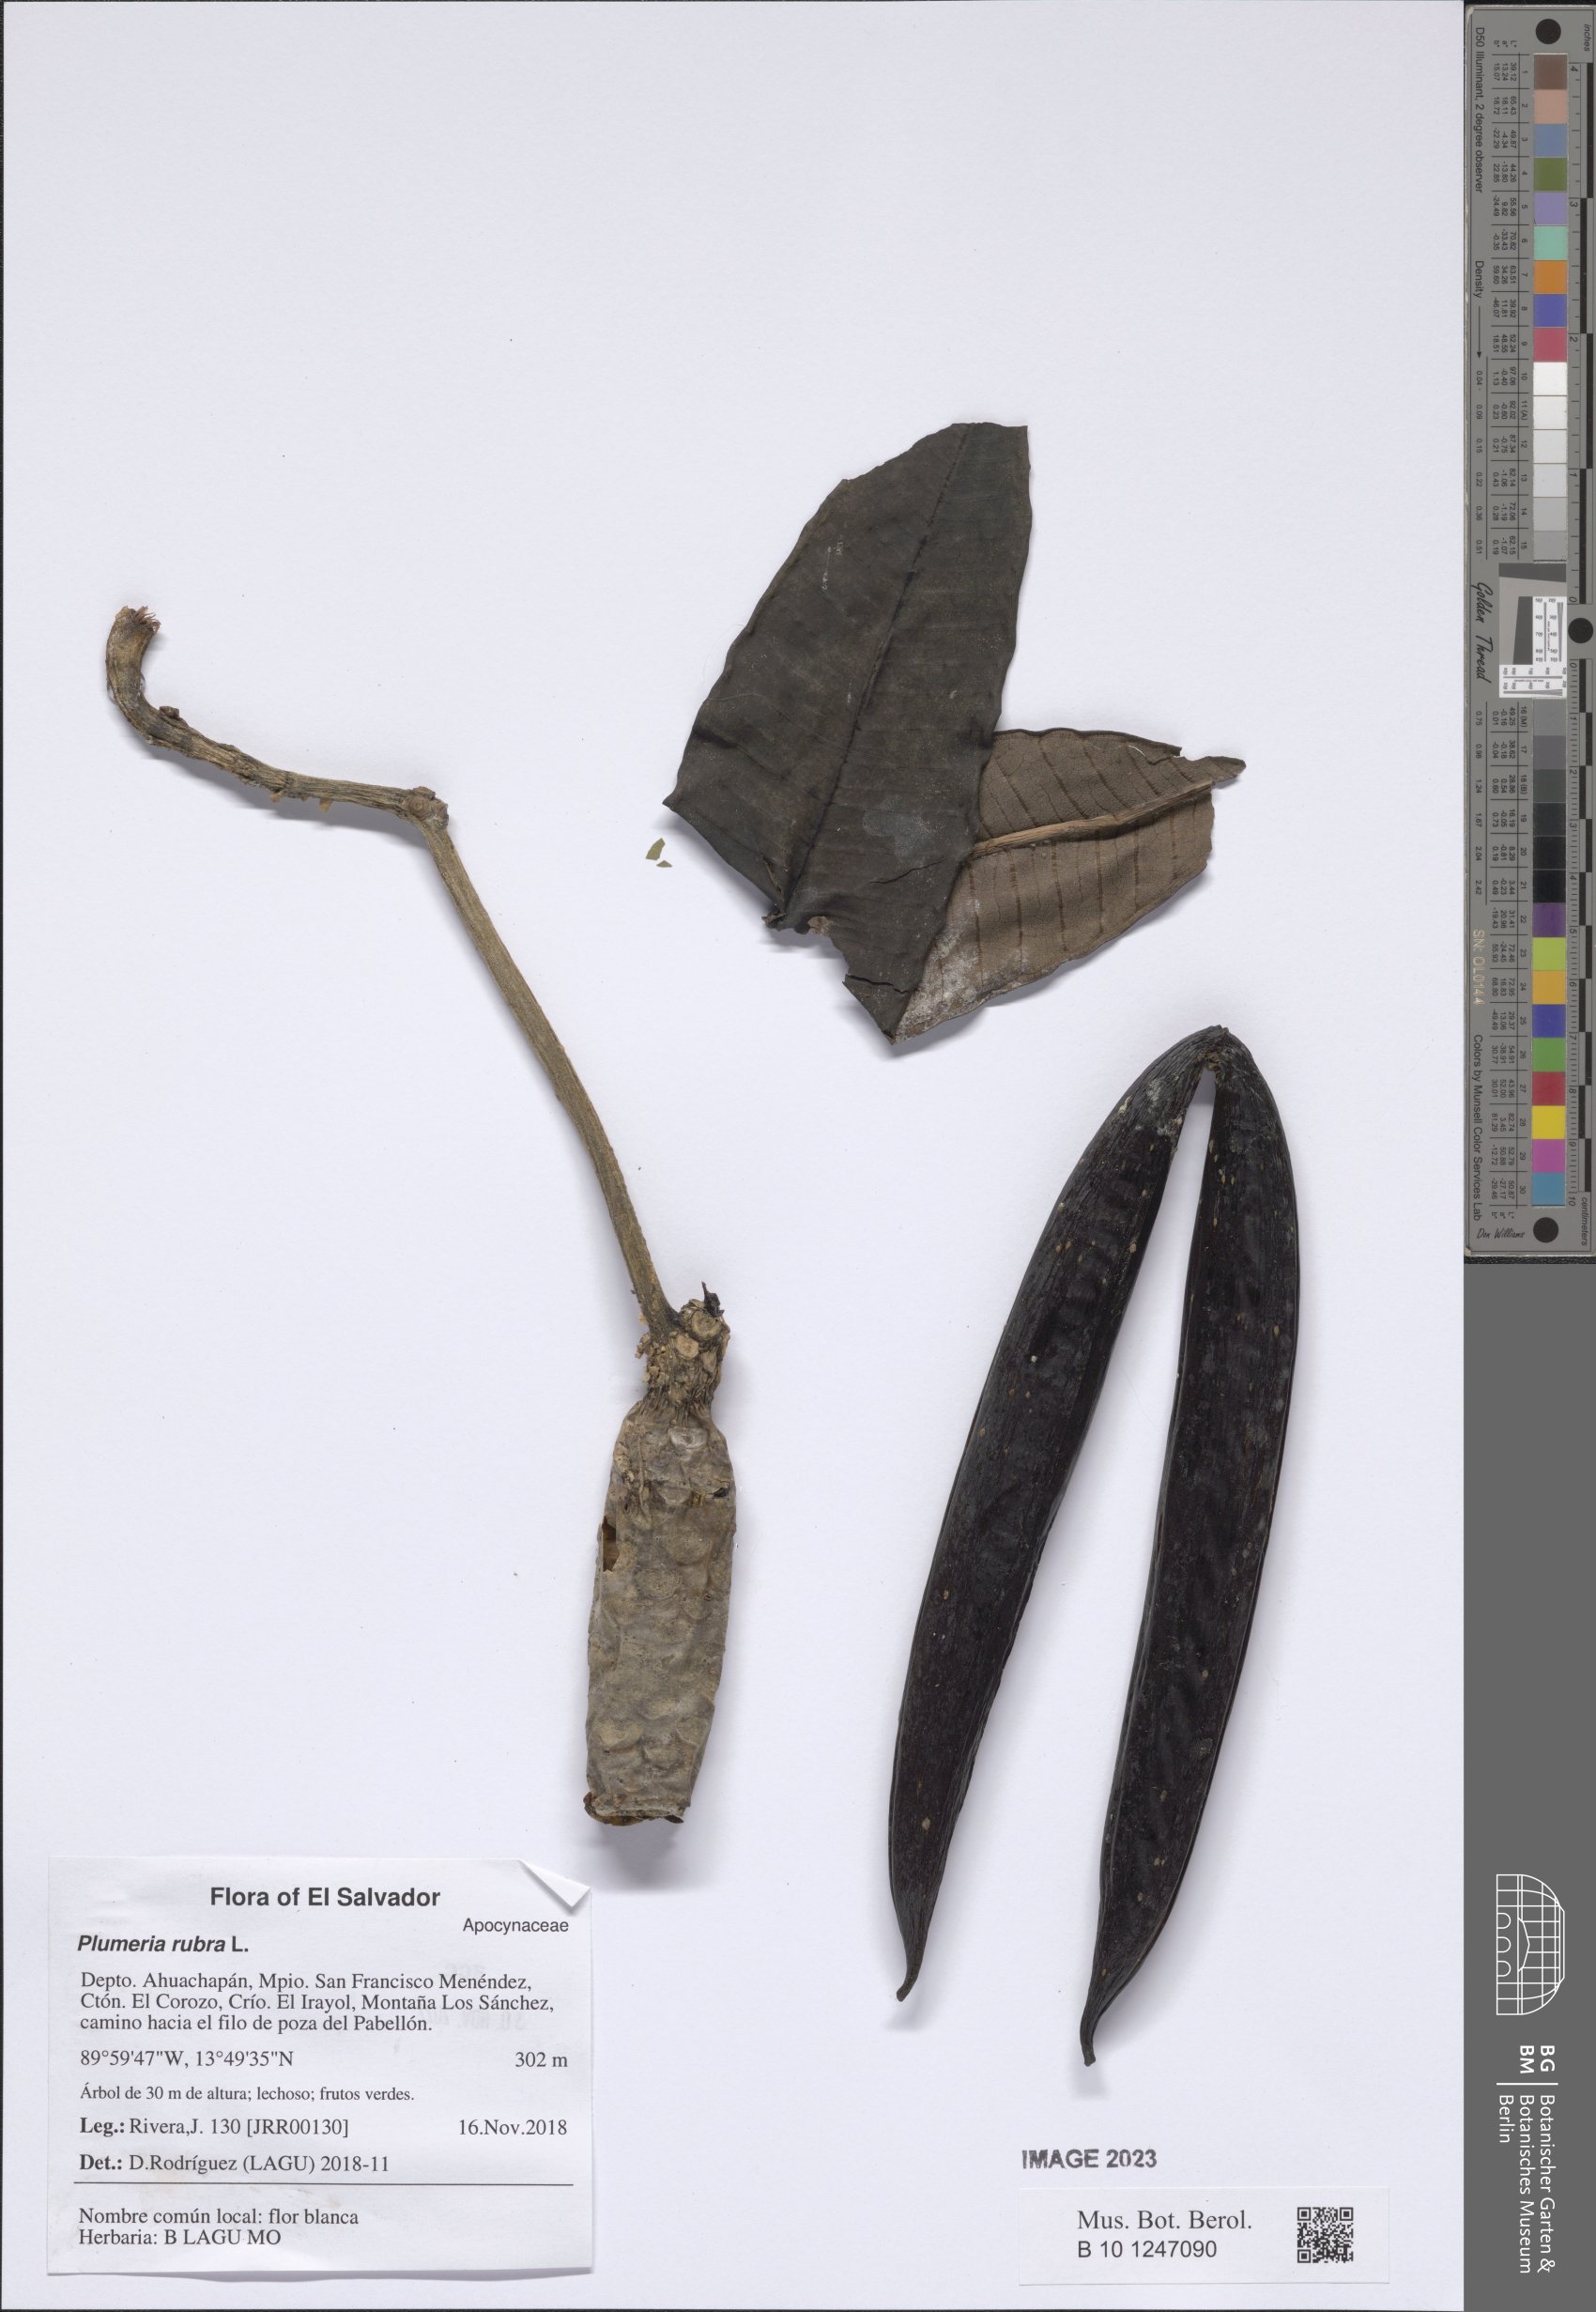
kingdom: Plantae
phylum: Tracheophyta
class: Magnoliopsida
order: Gentianales
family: Apocynaceae
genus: Plumeria
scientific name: Plumeria rubra
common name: Pagoda-tree
